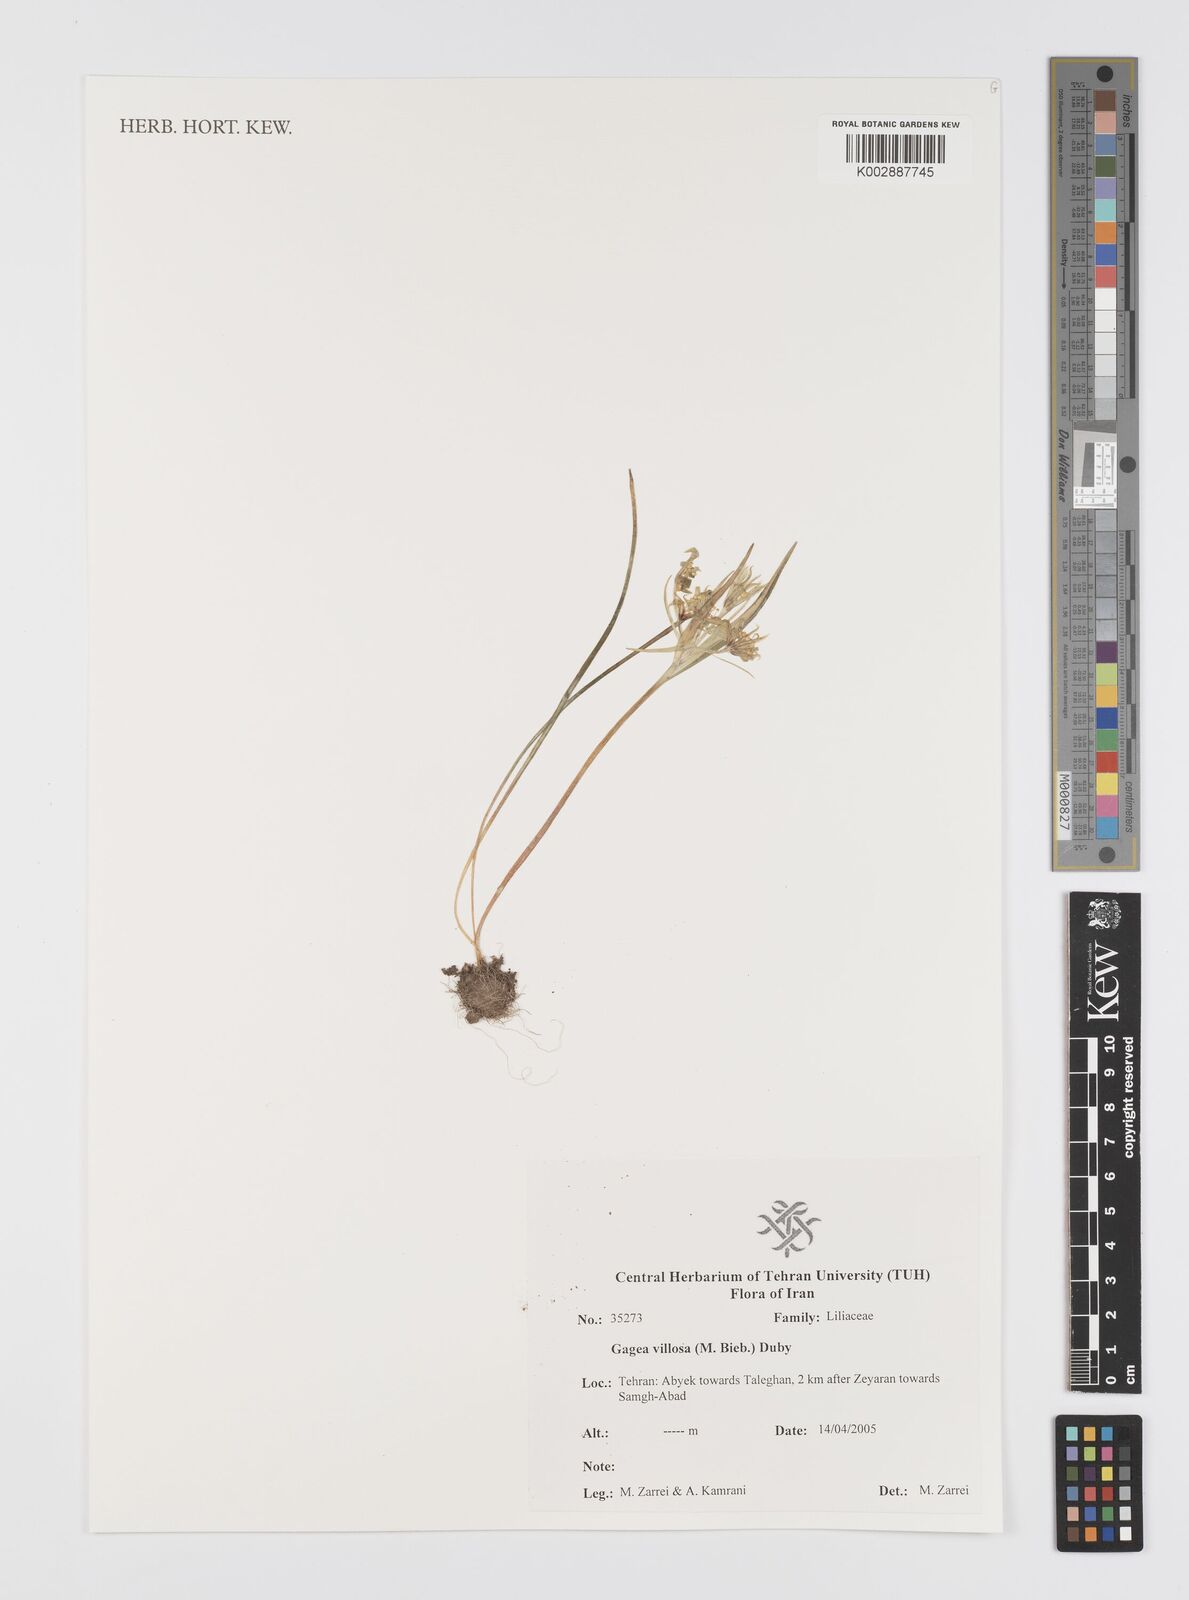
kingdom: Plantae
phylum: Tracheophyta
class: Liliopsida
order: Liliales
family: Liliaceae
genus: Gagea
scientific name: Gagea villosa
